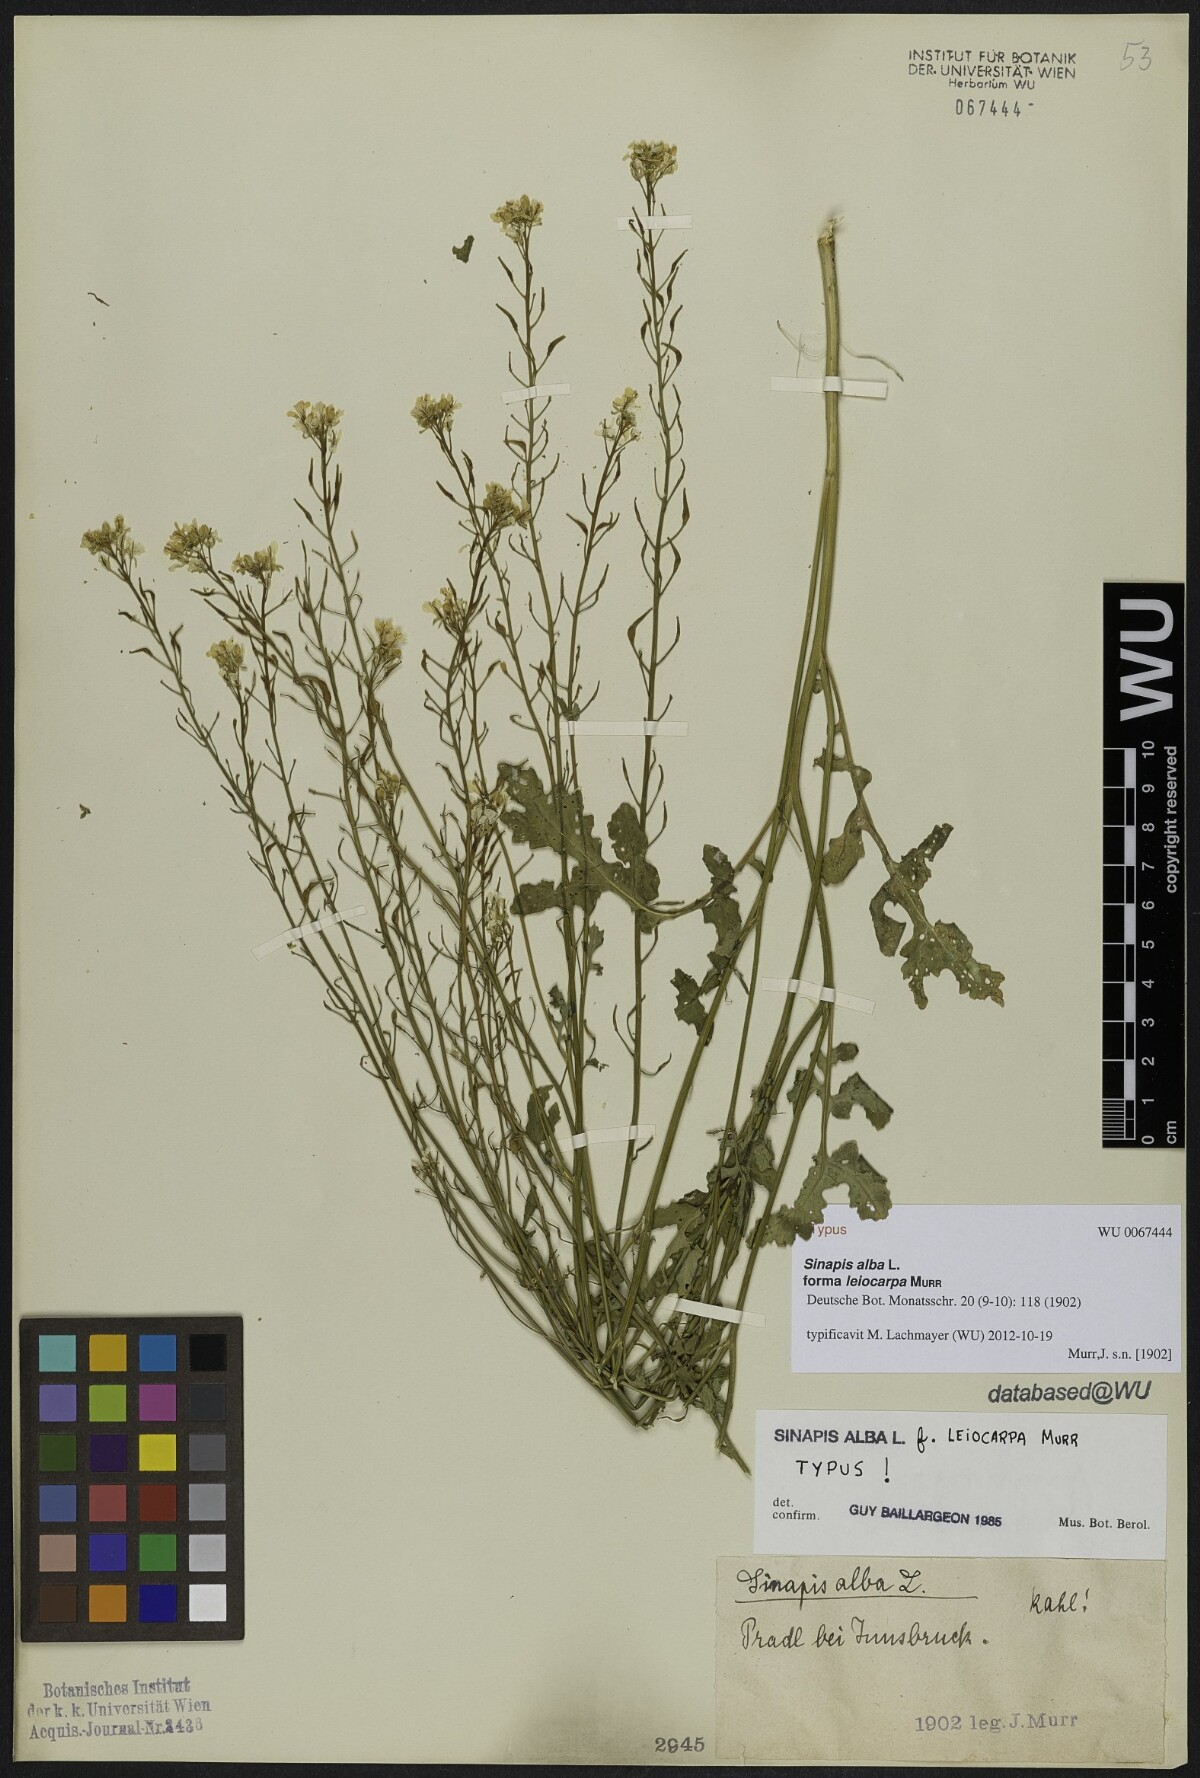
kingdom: Plantae
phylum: Tracheophyta
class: Magnoliopsida
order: Brassicales
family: Brassicaceae
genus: Sinapis
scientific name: Sinapis alba
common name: White mustard
